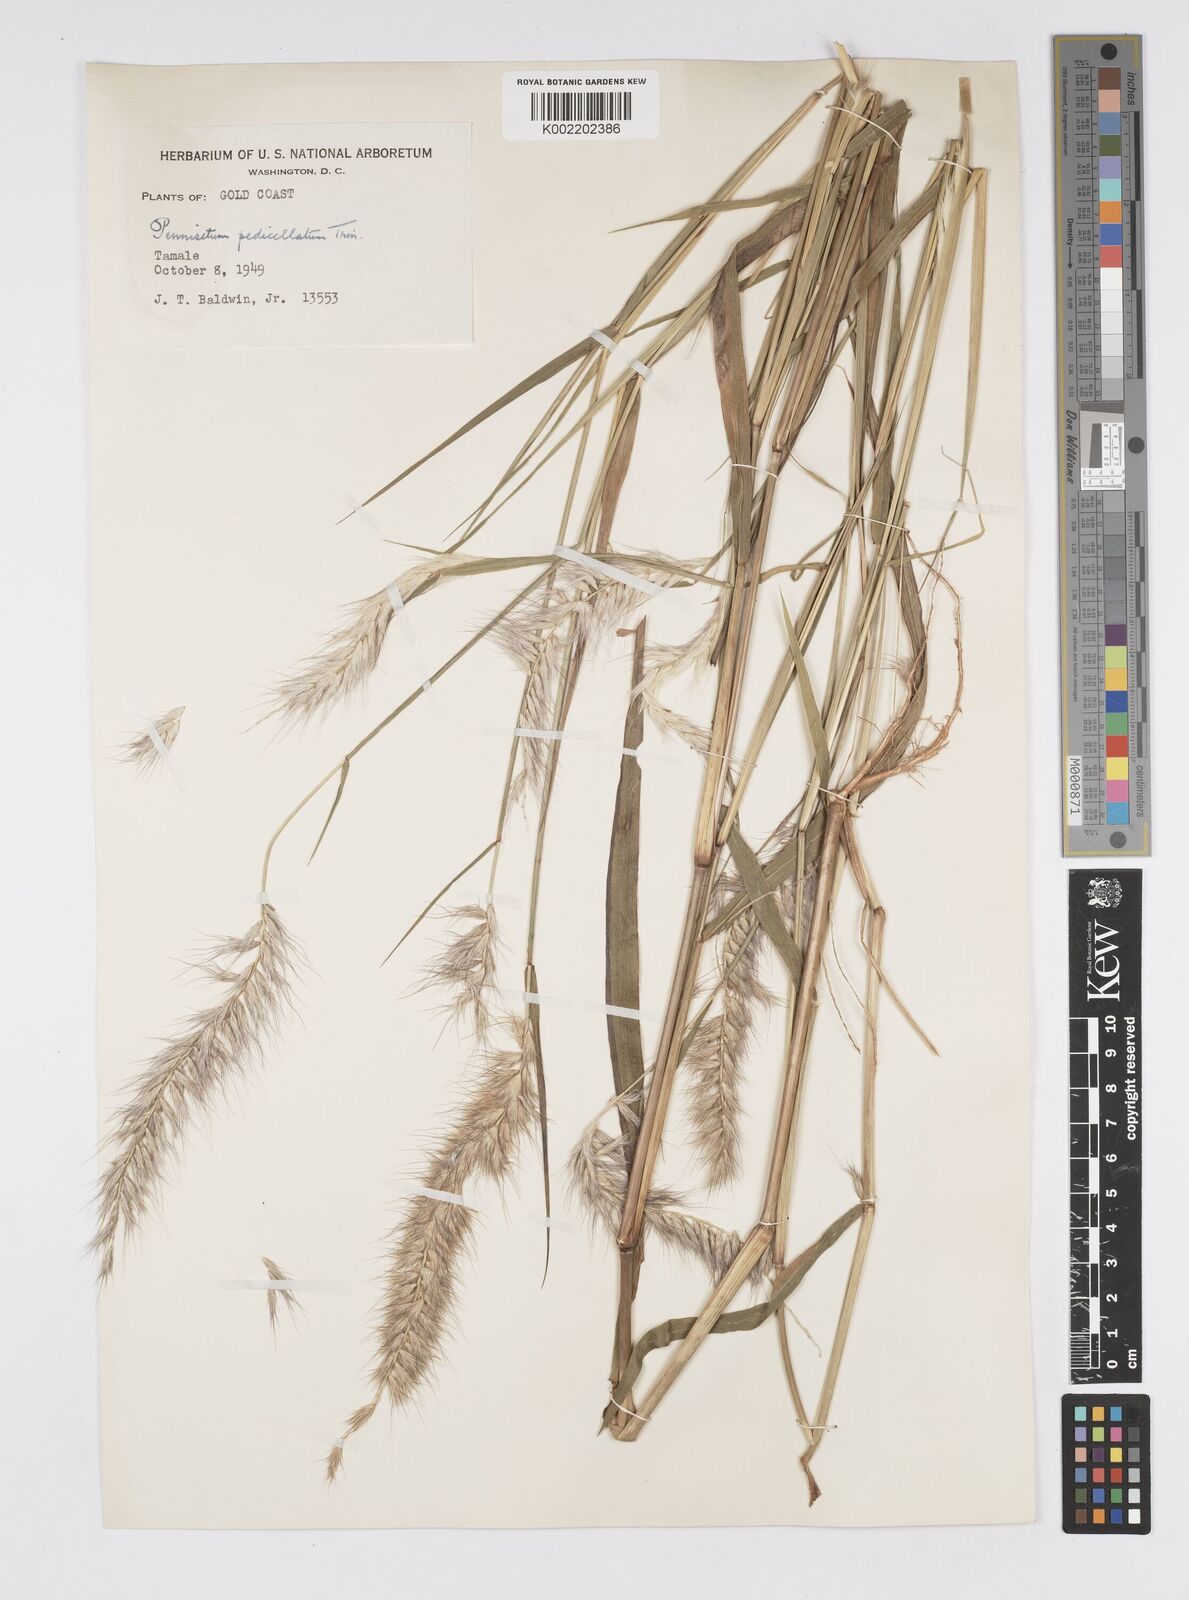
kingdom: Plantae
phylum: Tracheophyta
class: Liliopsida
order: Poales
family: Poaceae
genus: Cenchrus
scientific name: Cenchrus pedicellatus
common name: Hairy fountain grass
